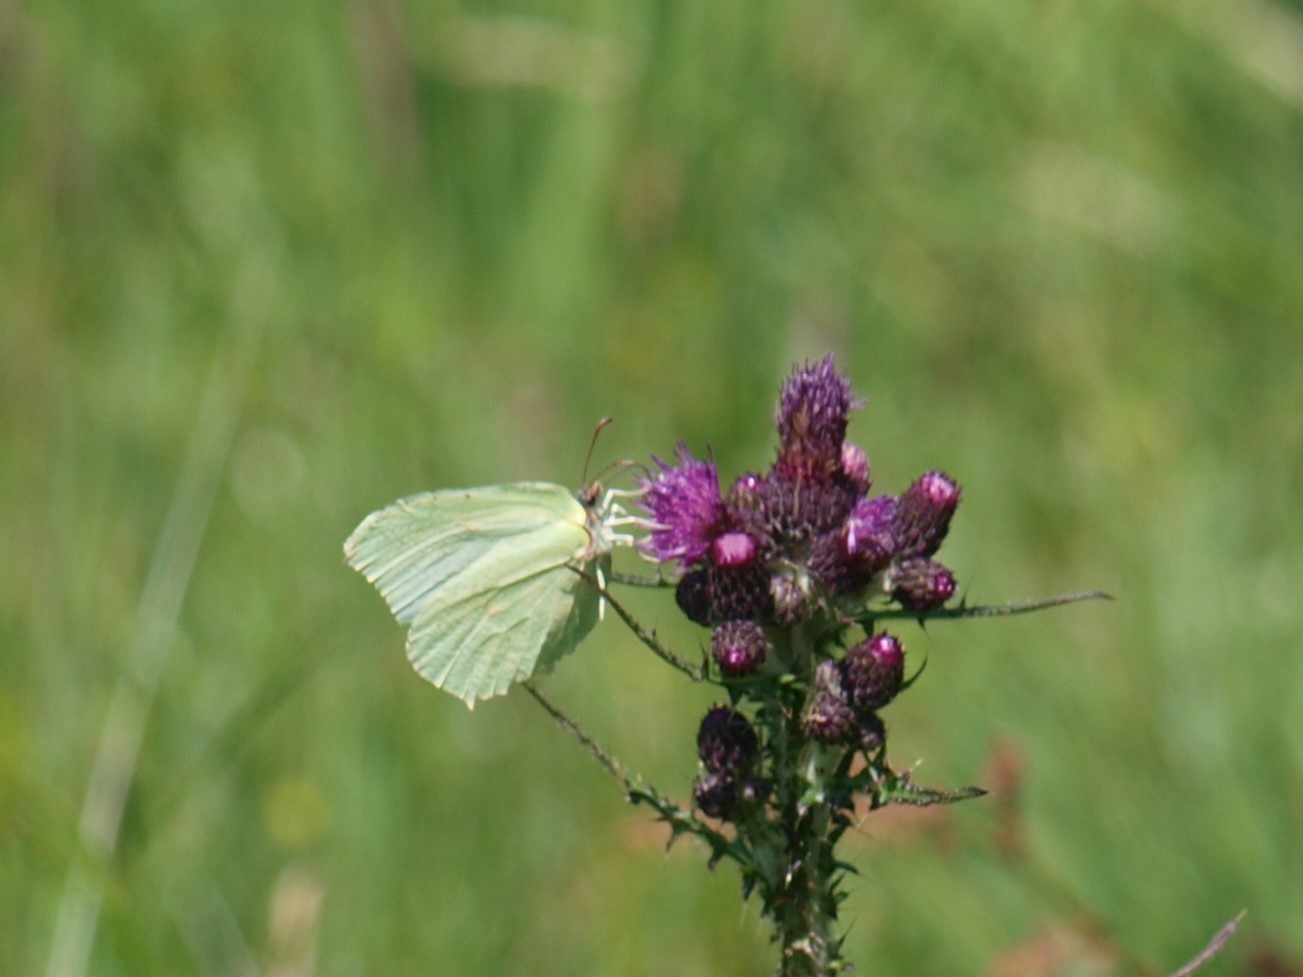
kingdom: Animalia
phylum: Arthropoda
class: Insecta
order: Lepidoptera
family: Pieridae
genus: Gonepteryx
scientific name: Gonepteryx rhamni
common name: Citronsommerfugl
